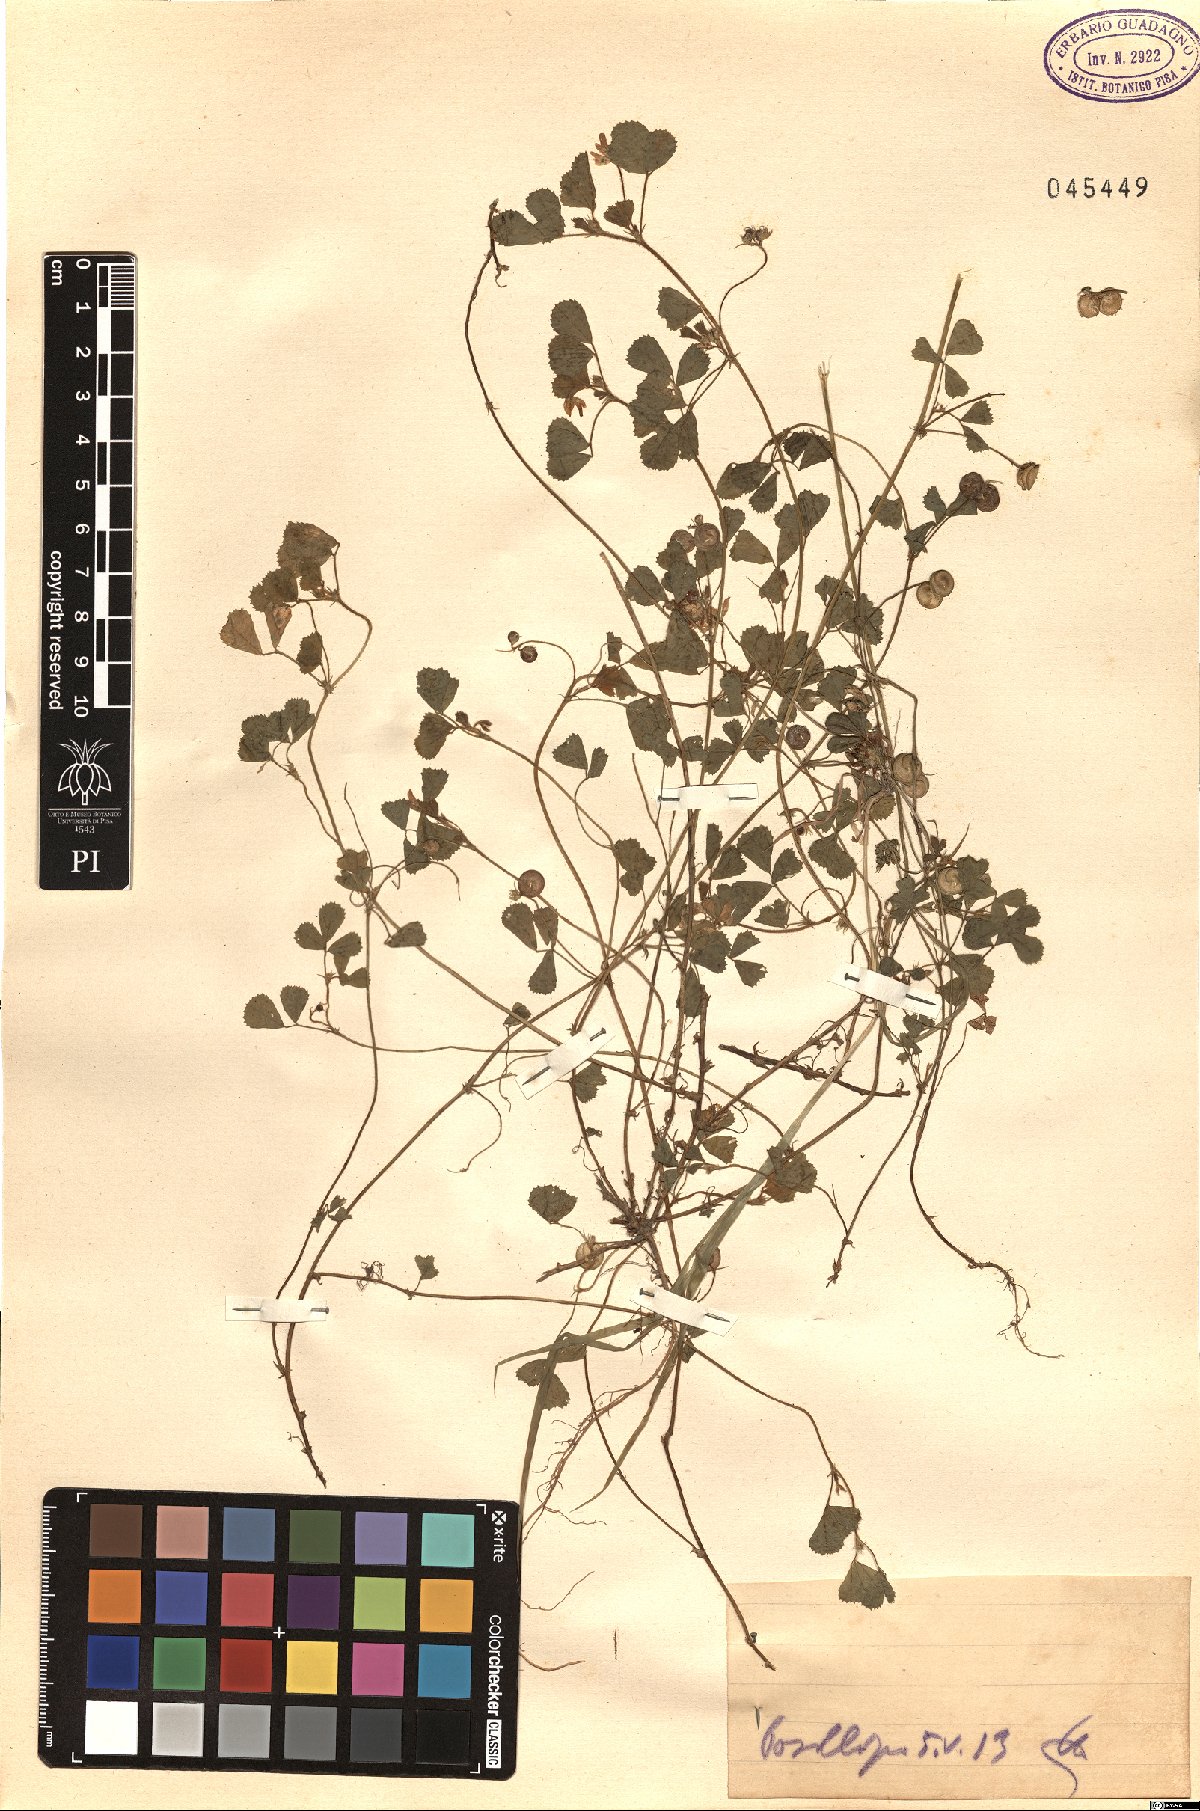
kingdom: Plantae
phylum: Tracheophyta
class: Magnoliopsida
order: Fabales
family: Fabaceae
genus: Medicago
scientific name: Medicago
